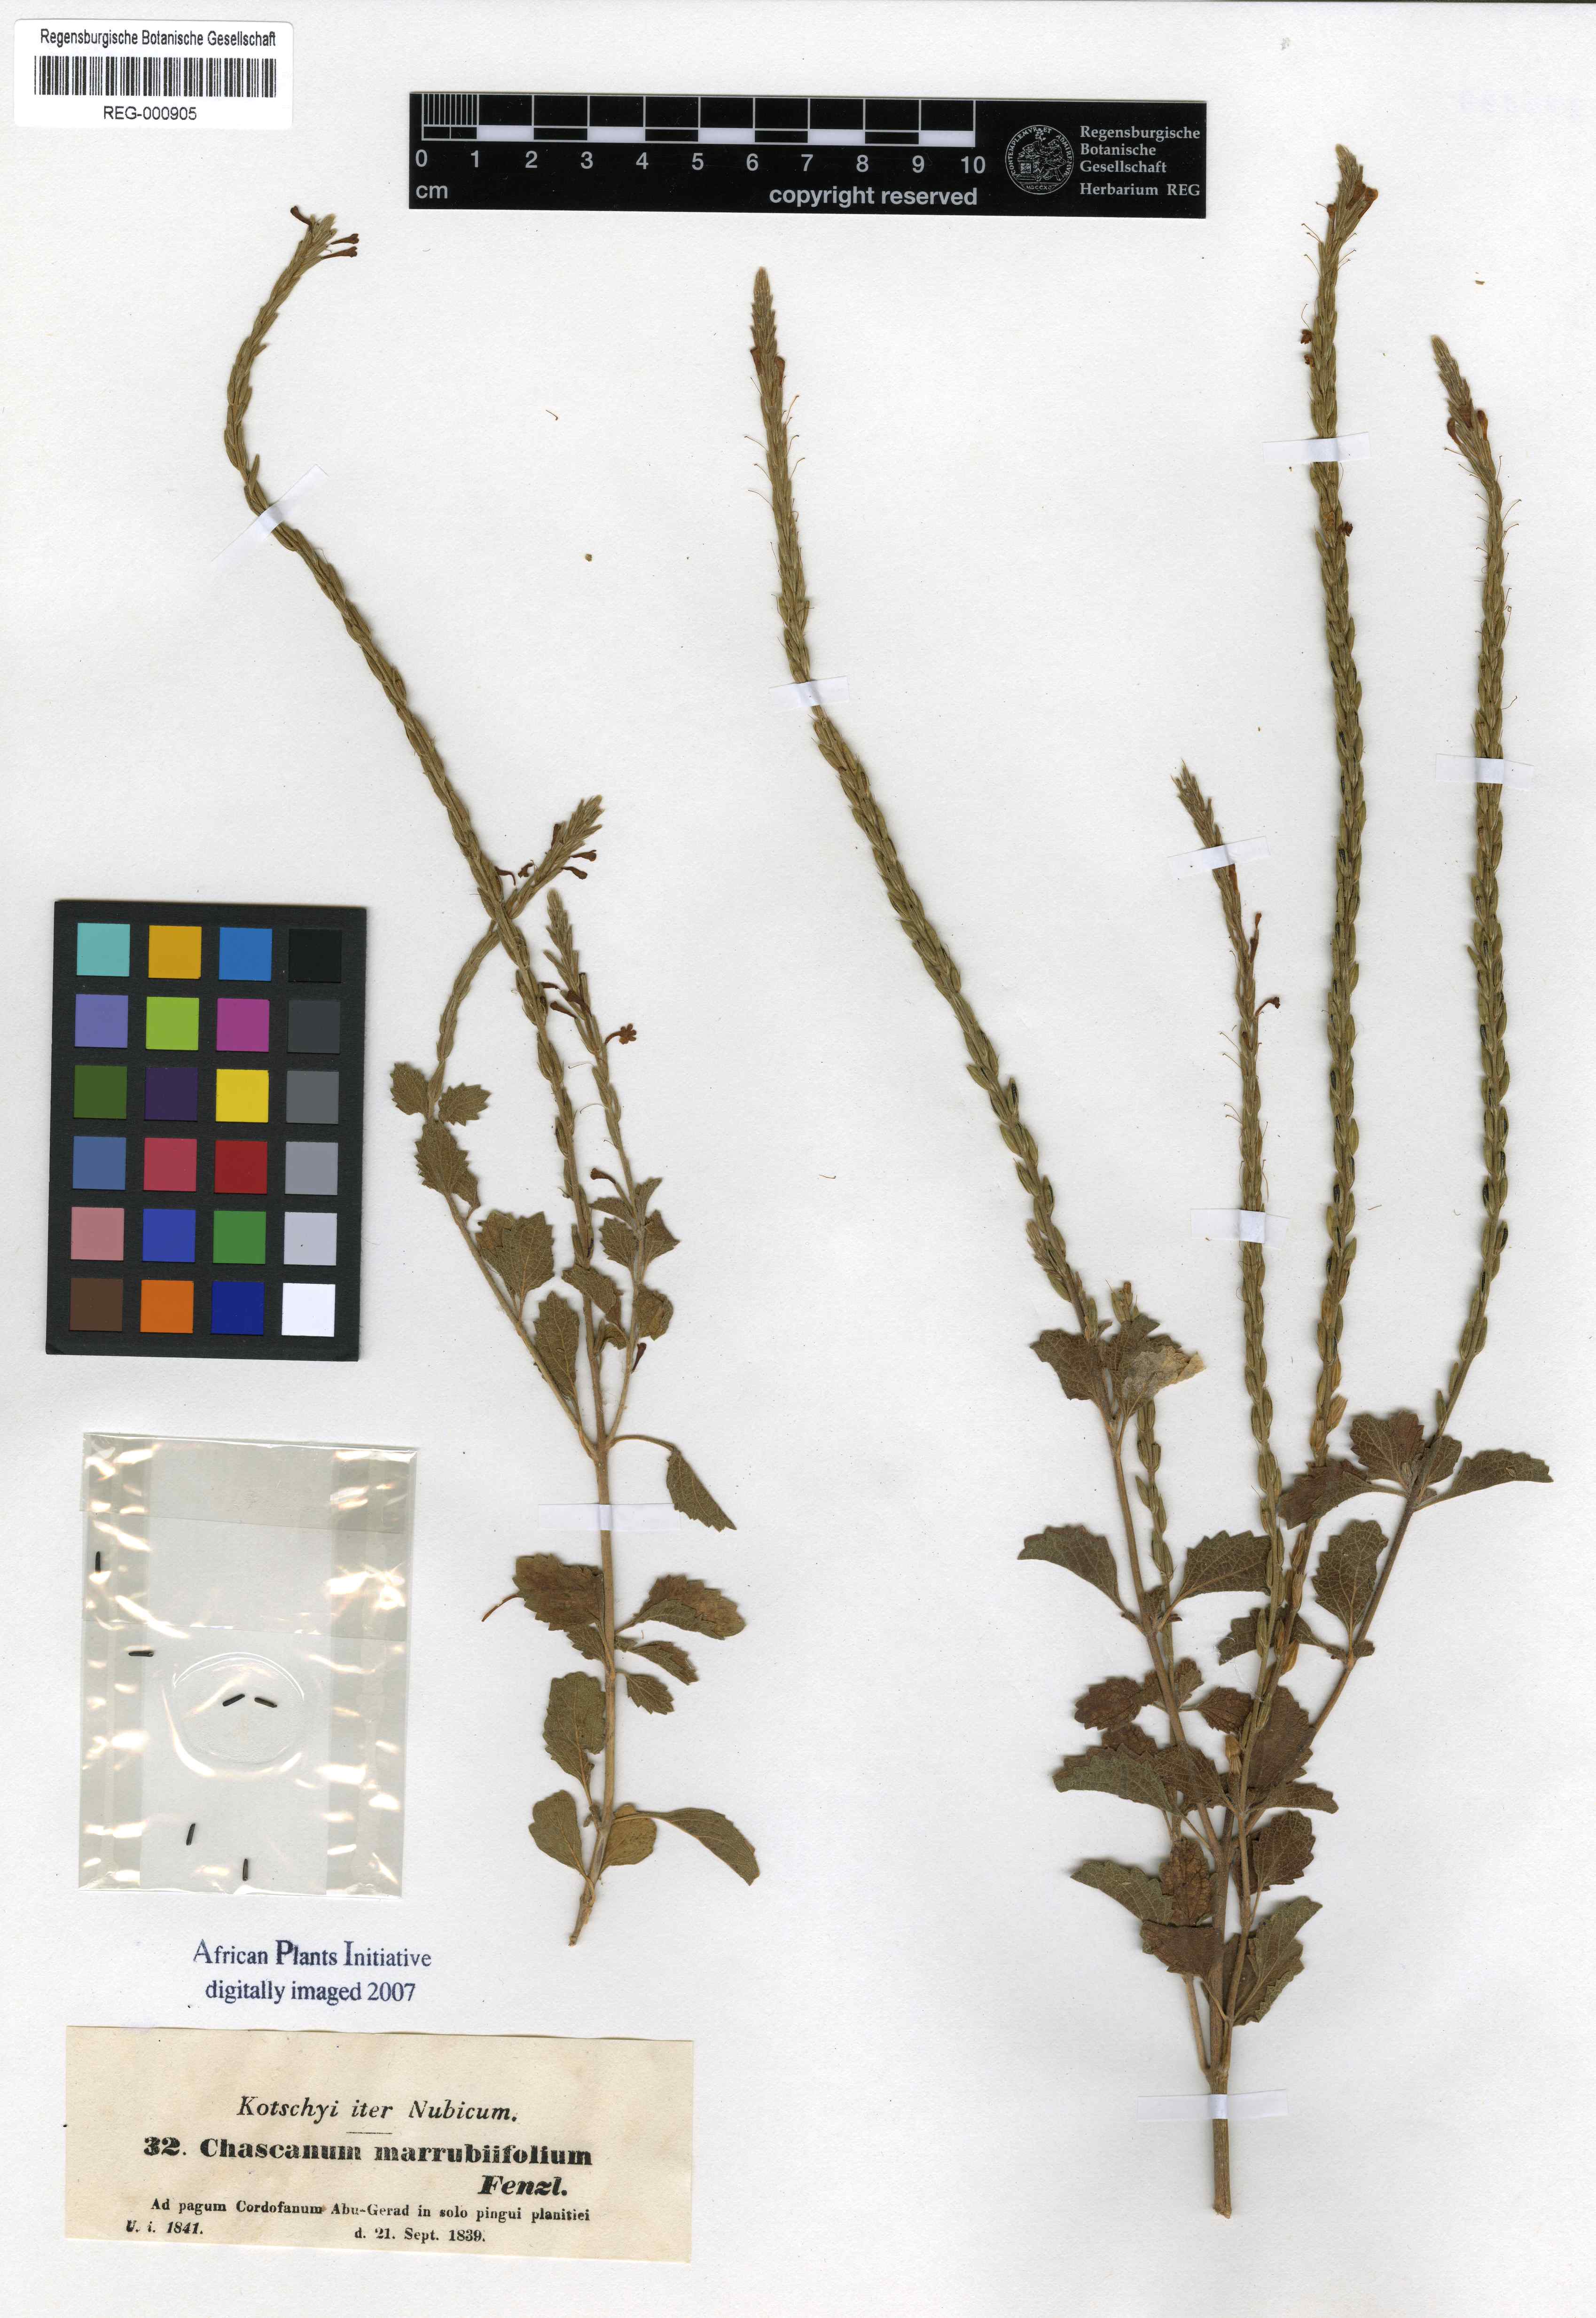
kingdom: Plantae
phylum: Tracheophyta
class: Magnoliopsida
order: Lamiales
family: Verbenaceae
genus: Chascanum
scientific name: Chascanum marrubiifolium
